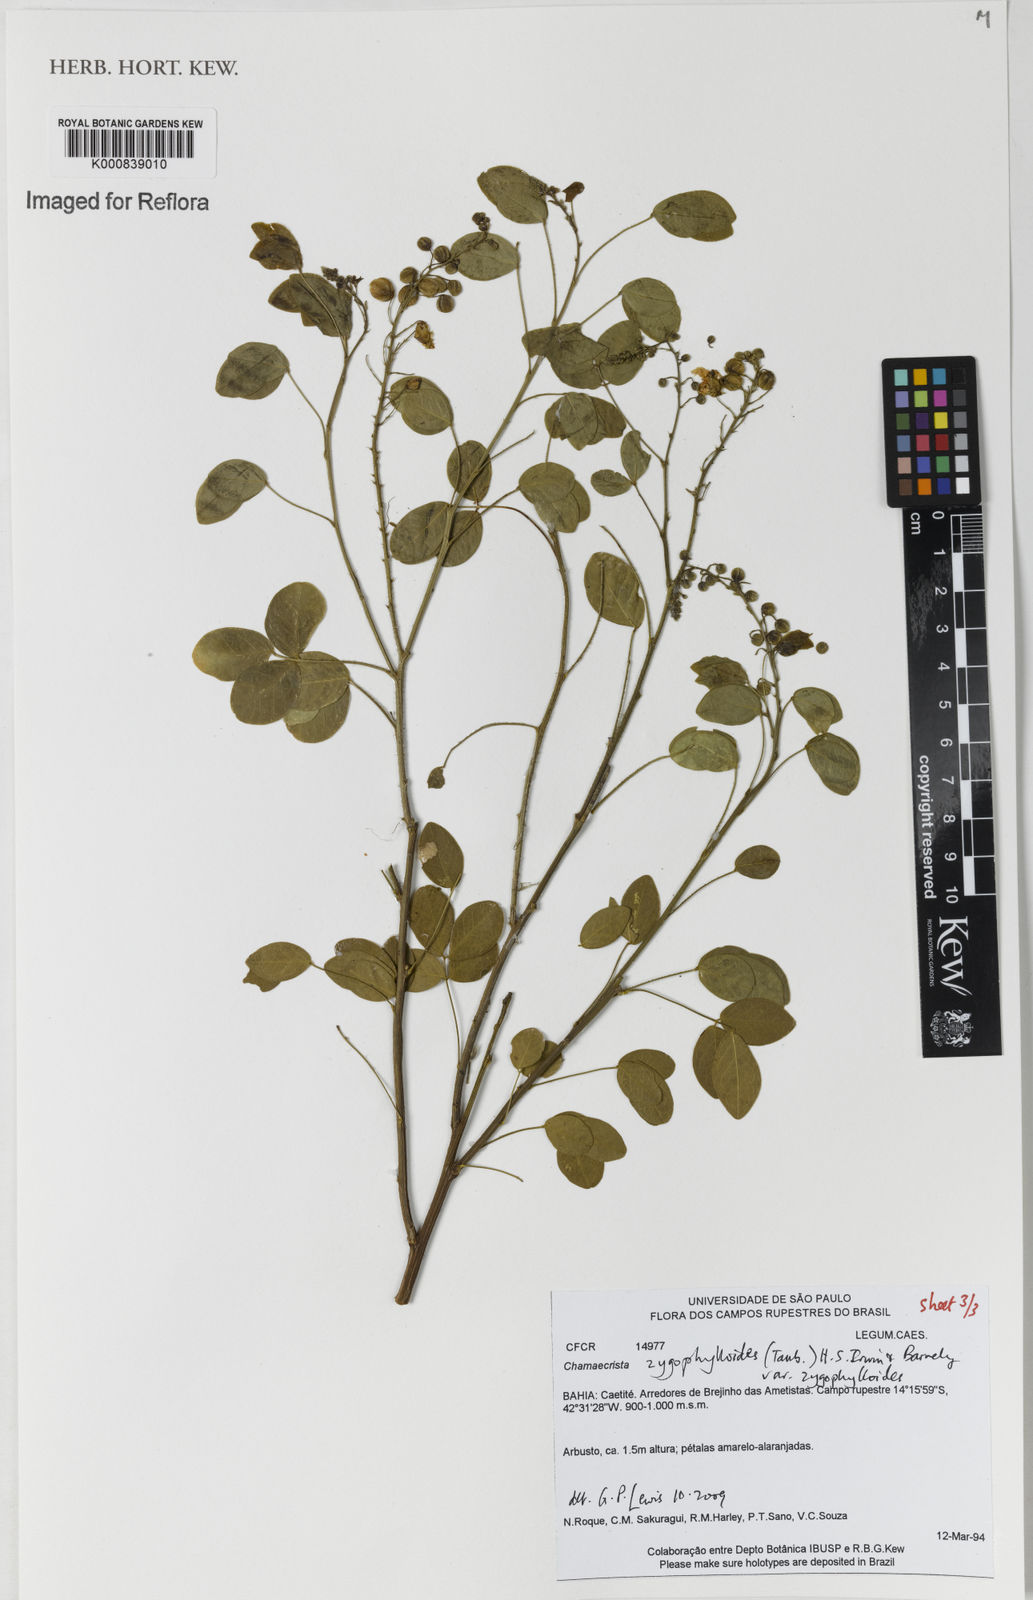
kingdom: Plantae
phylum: Tracheophyta
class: Magnoliopsida
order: Fabales
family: Fabaceae
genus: Chamaecrista
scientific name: Chamaecrista zygophylloides
